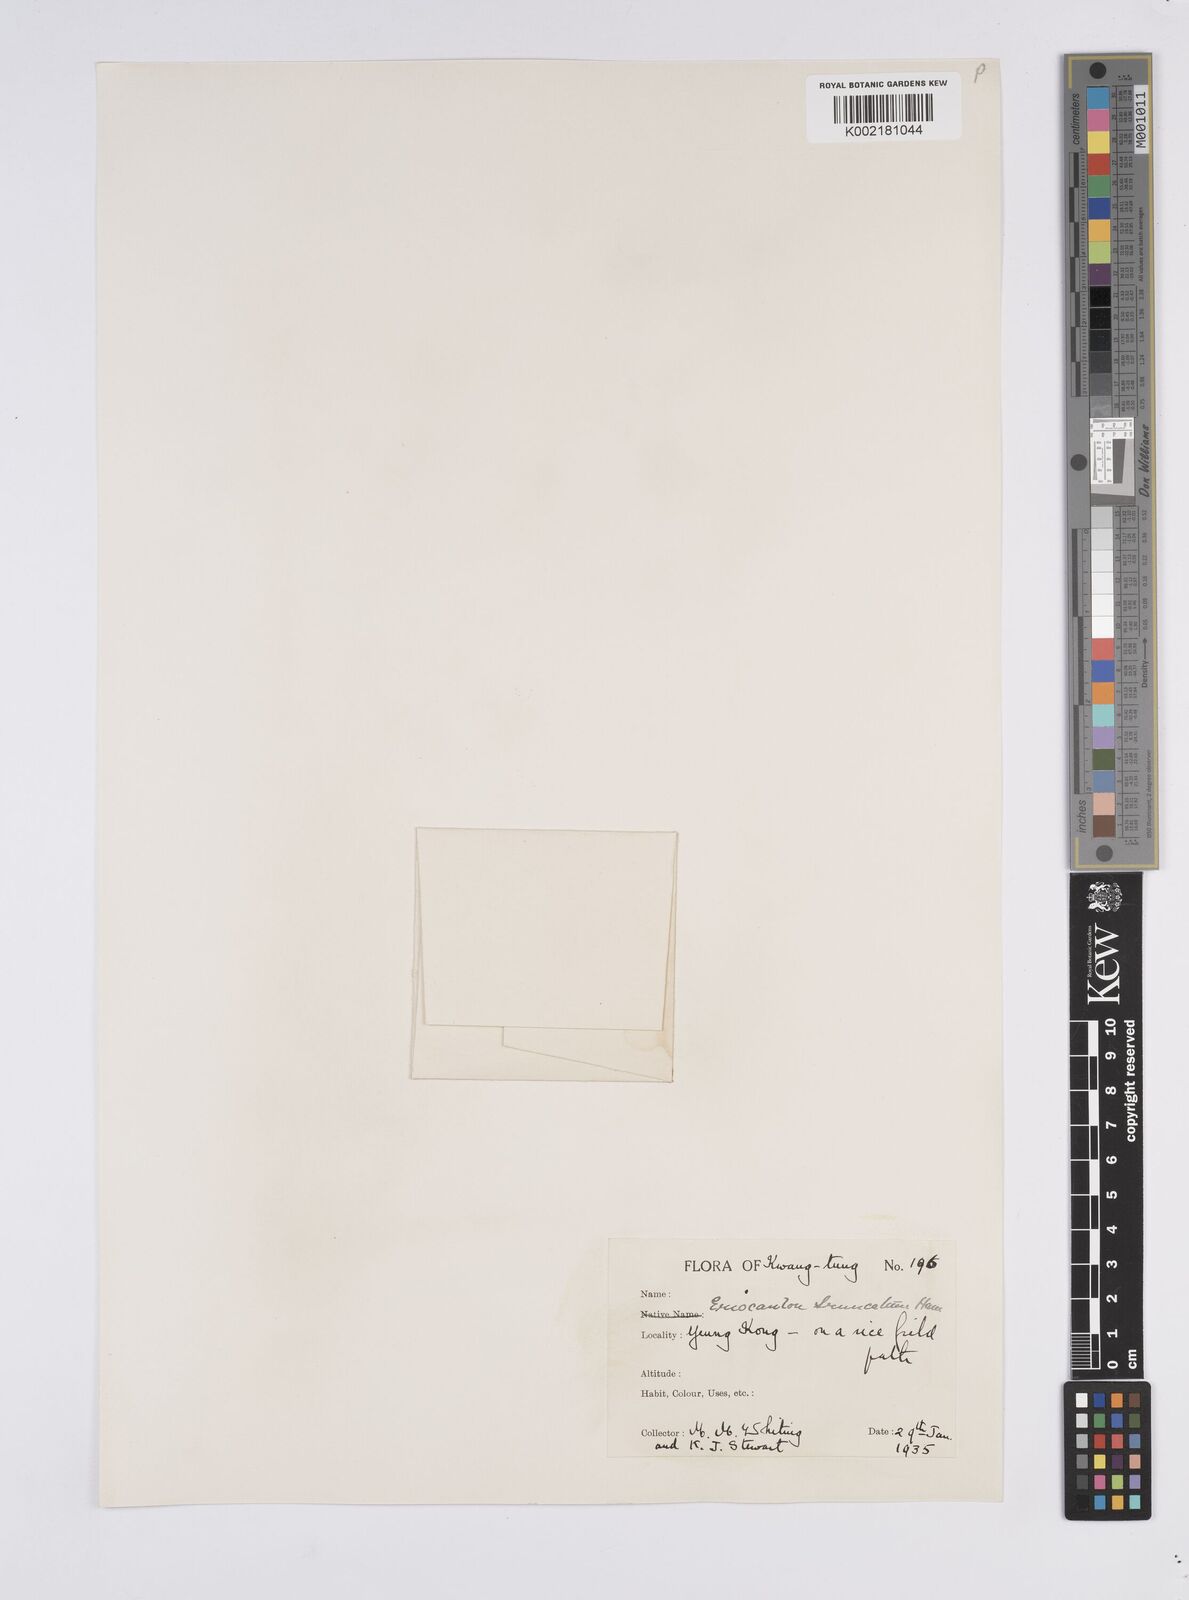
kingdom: Plantae
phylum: Tracheophyta
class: Liliopsida
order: Poales
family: Eriocaulaceae
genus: Eriocaulon
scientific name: Eriocaulon truncatum
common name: Short pipe-wort
